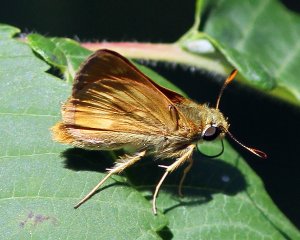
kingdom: Animalia
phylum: Arthropoda
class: Insecta
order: Lepidoptera
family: Hesperiidae
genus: Polites
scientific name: Polites
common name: Long Dash Skipper
